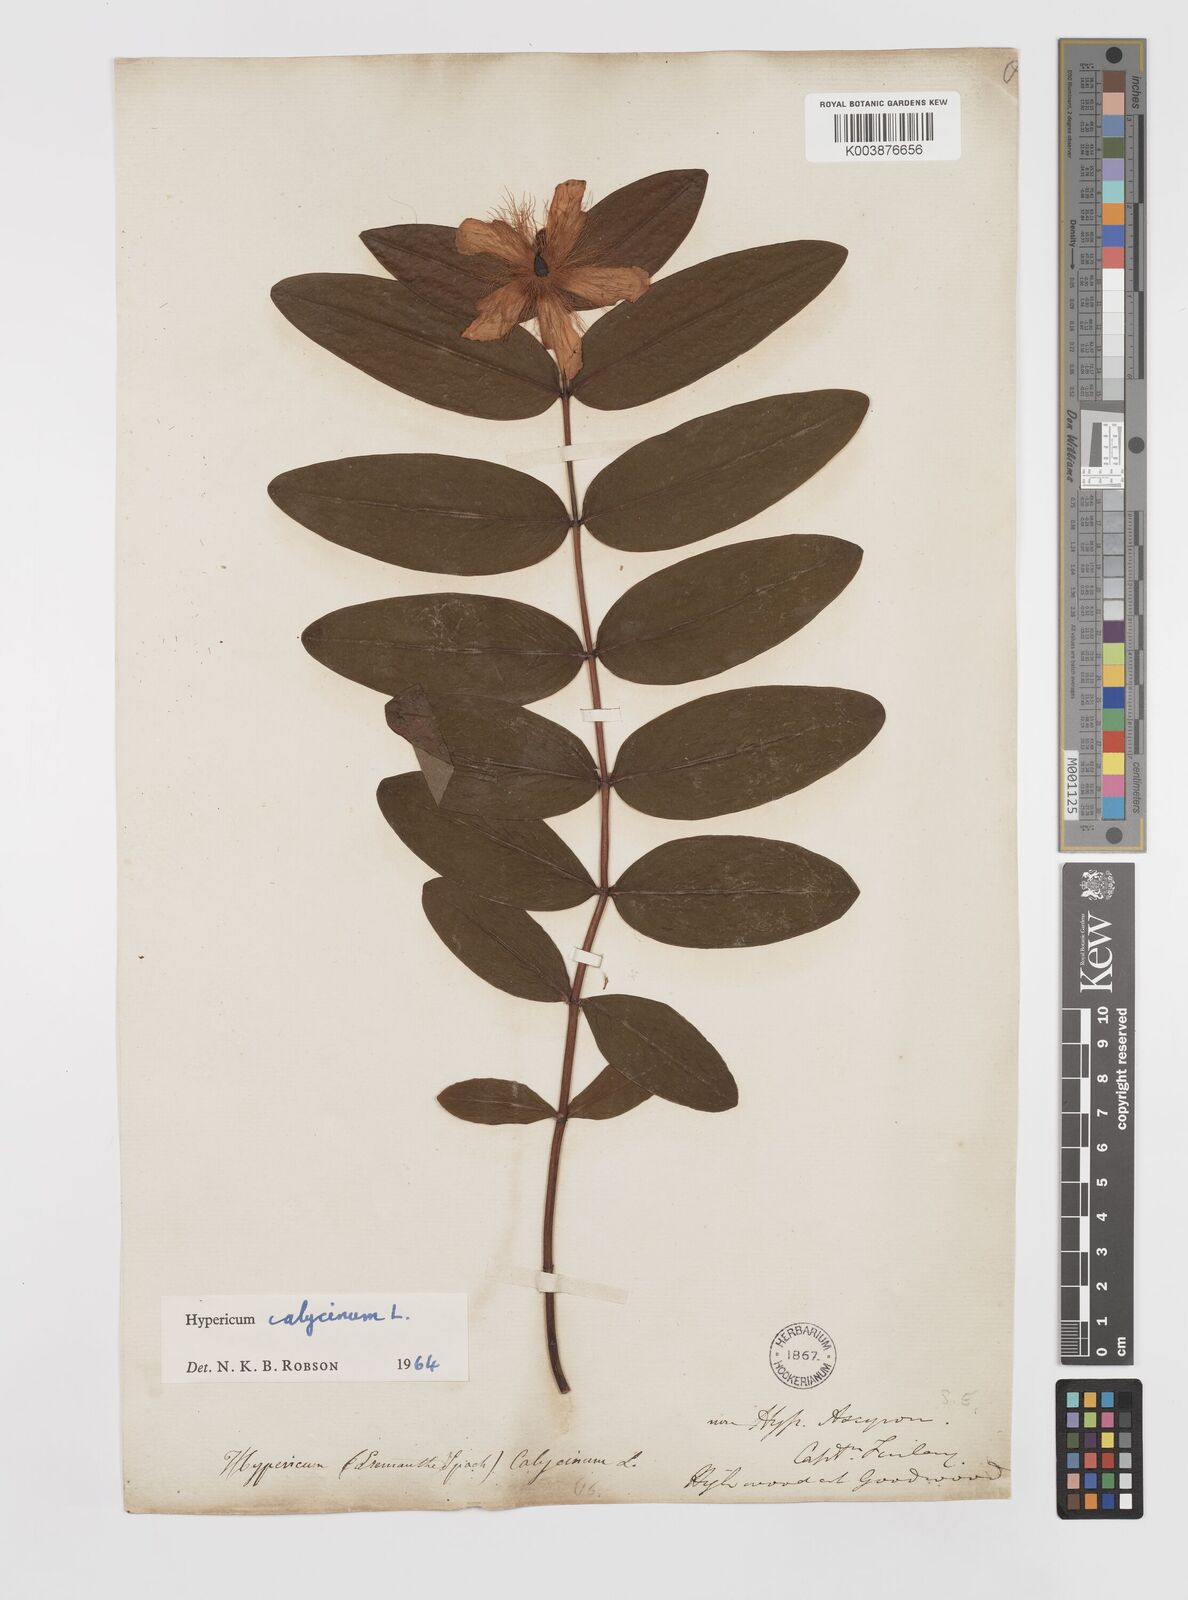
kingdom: Plantae
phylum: Tracheophyta
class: Magnoliopsida
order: Malpighiales
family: Hypericaceae
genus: Hypericum
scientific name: Hypericum calycinum
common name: Rose-of-sharon
